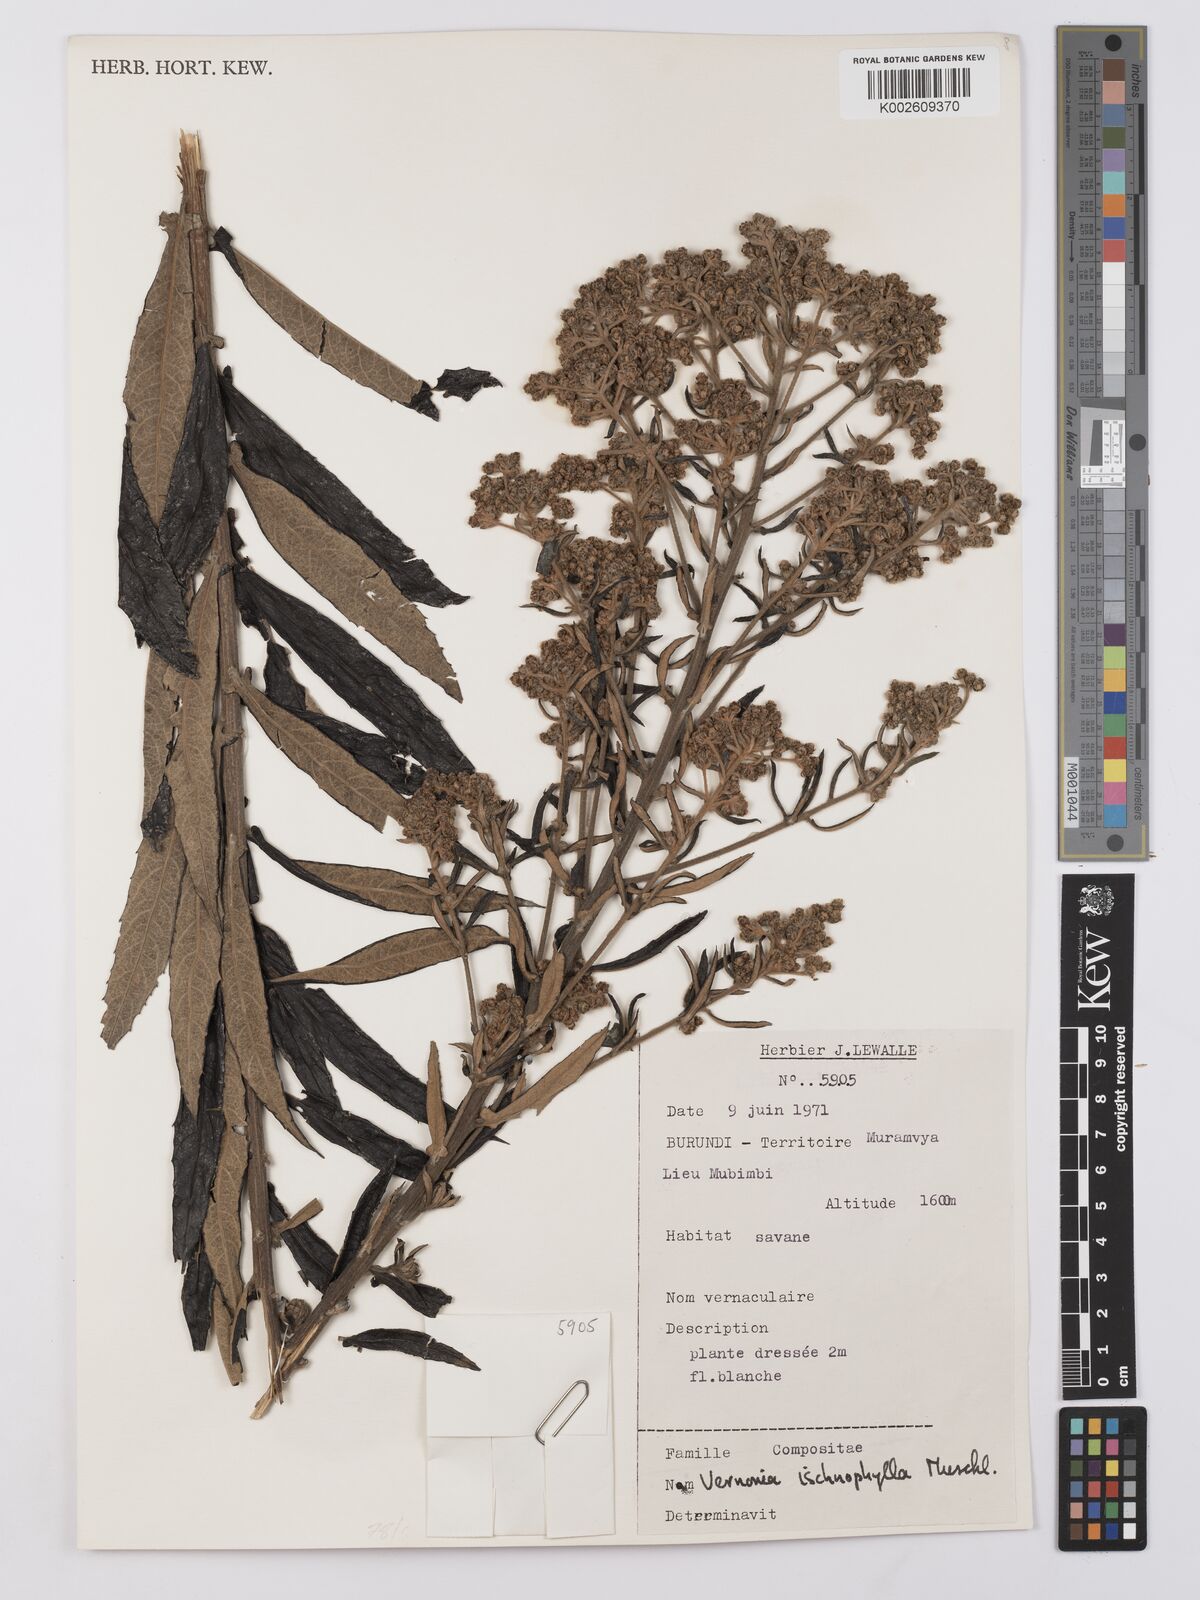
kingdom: Plantae
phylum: Tracheophyta
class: Magnoliopsida
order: Asterales
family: Asteraceae
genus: Vernonia
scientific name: Vernonia ischnophylla
